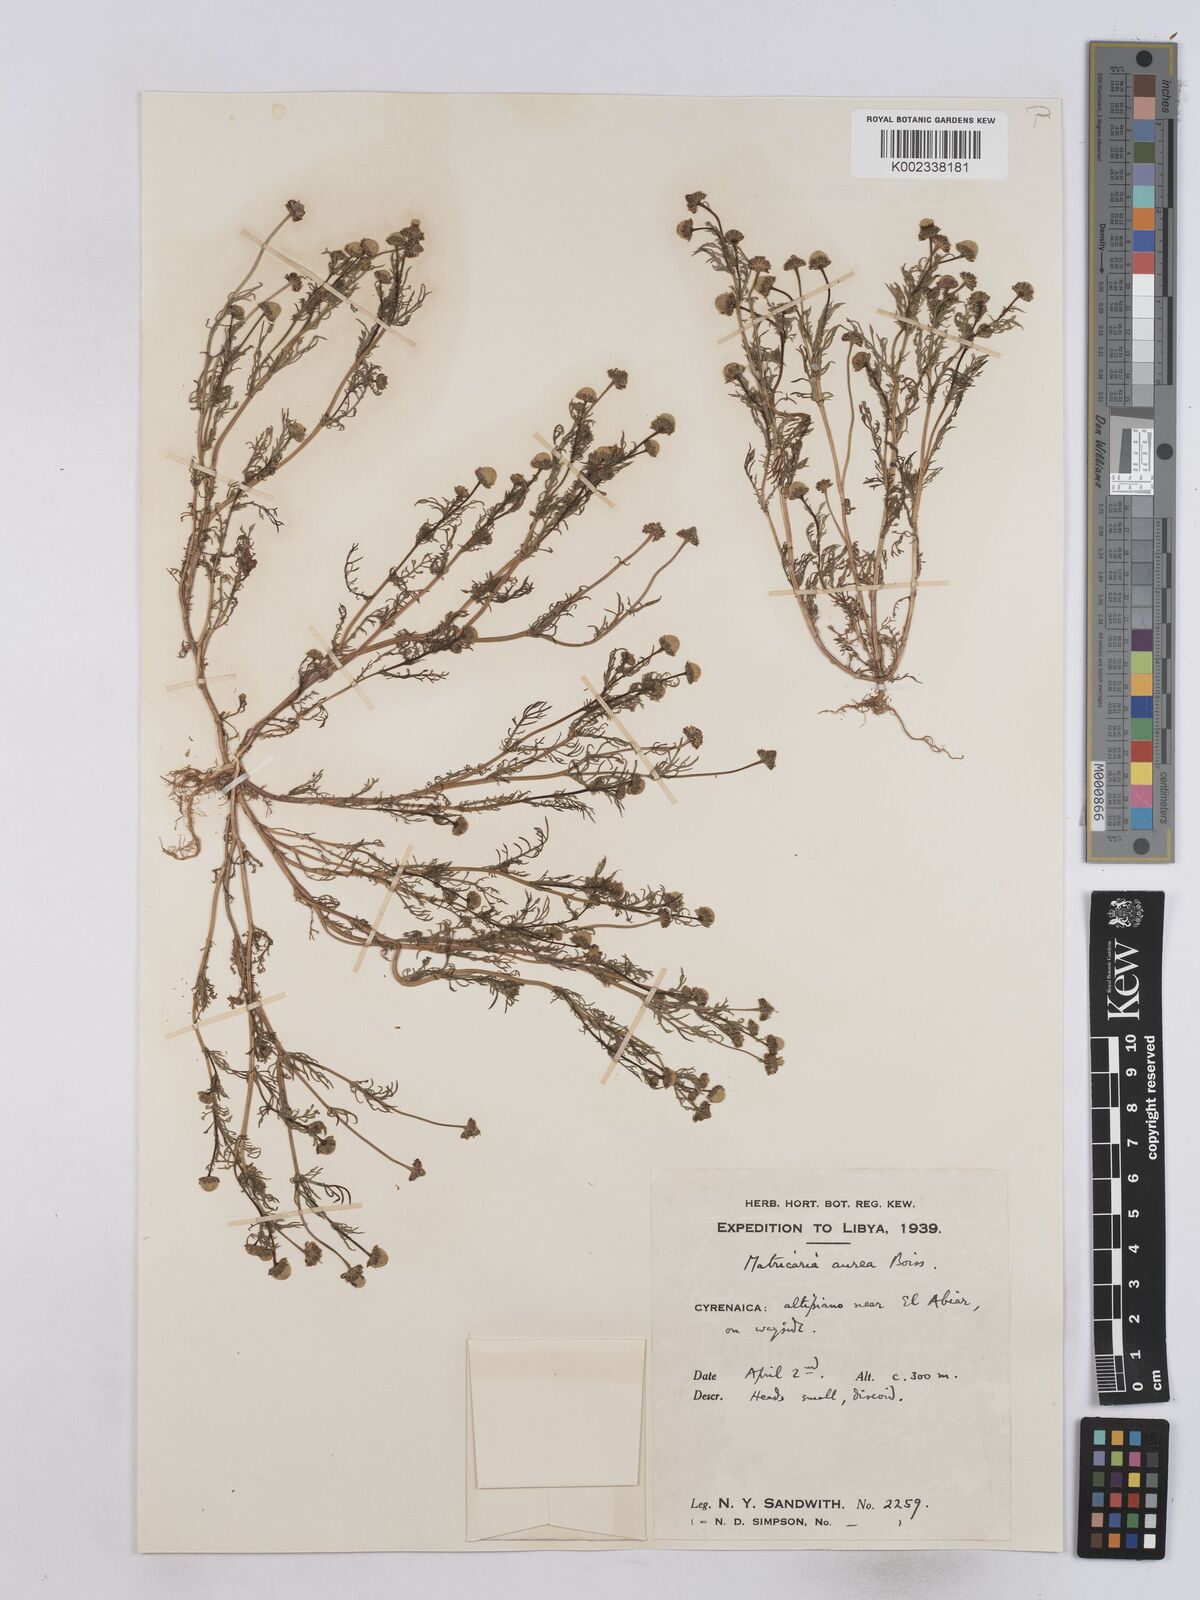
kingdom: Plantae
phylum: Tracheophyta
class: Magnoliopsida
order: Asterales
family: Asteraceae
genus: Matricaria
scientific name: Matricaria aurea
